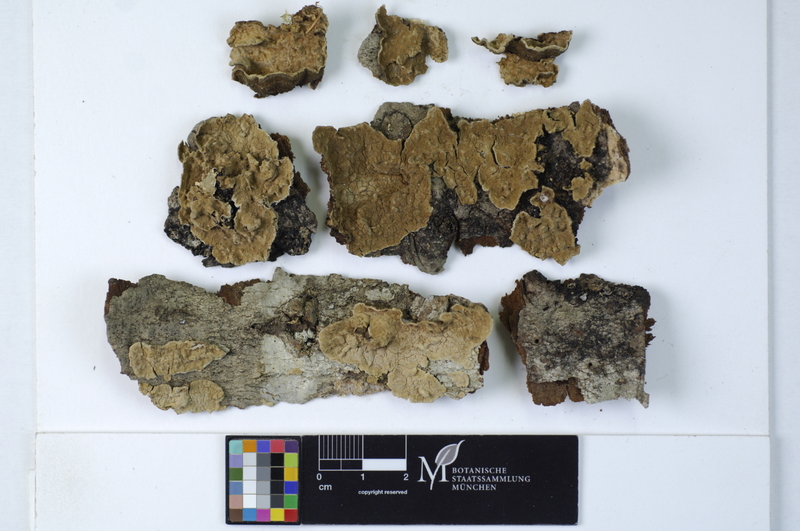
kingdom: Fungi
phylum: Basidiomycota
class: Agaricomycetes
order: Russulales
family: Echinodontiaceae
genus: Amylostereum
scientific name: Amylostereum chailletii
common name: Powdered duster
